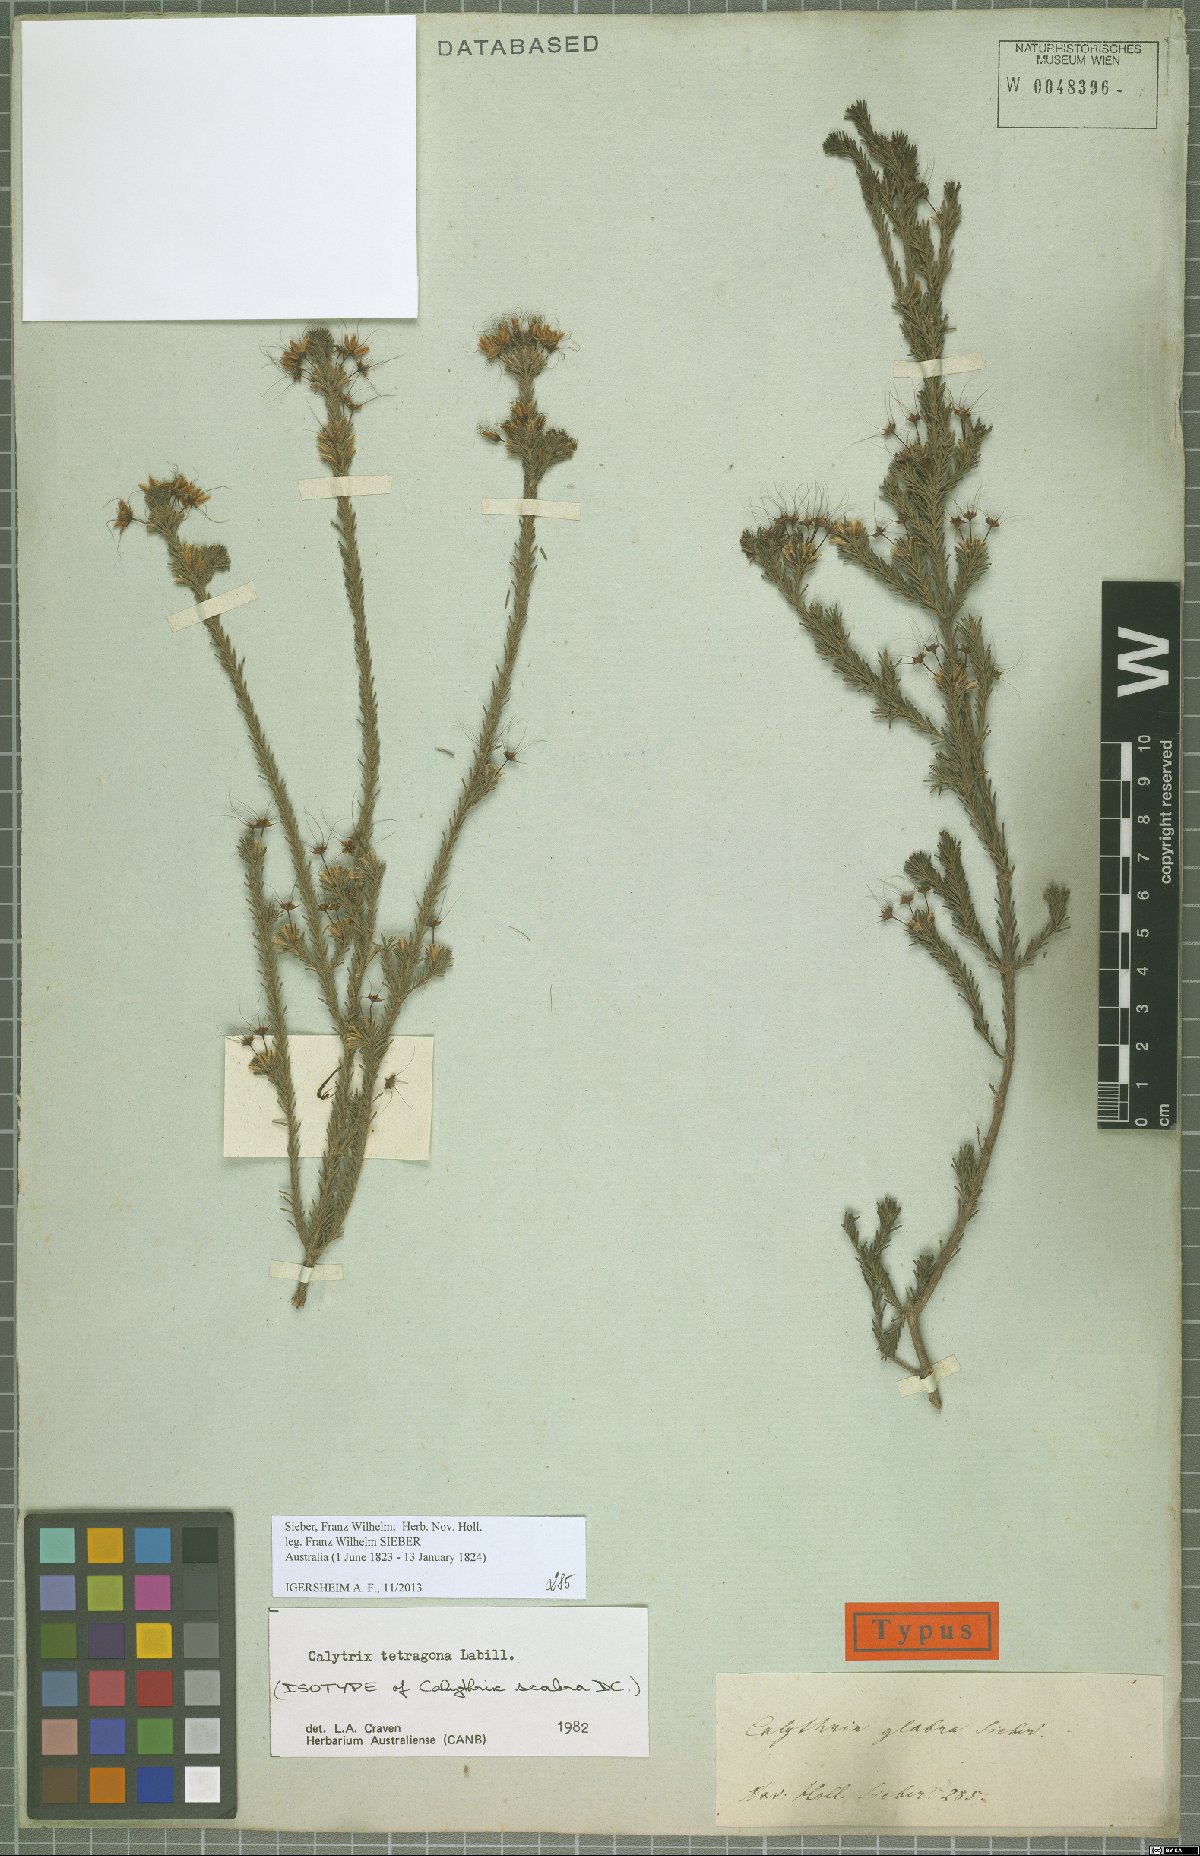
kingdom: Plantae
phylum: Tracheophyta
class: Magnoliopsida
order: Myrtales
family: Myrtaceae
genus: Calytrix
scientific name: Calytrix tetragona
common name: Common fringe myrtle
